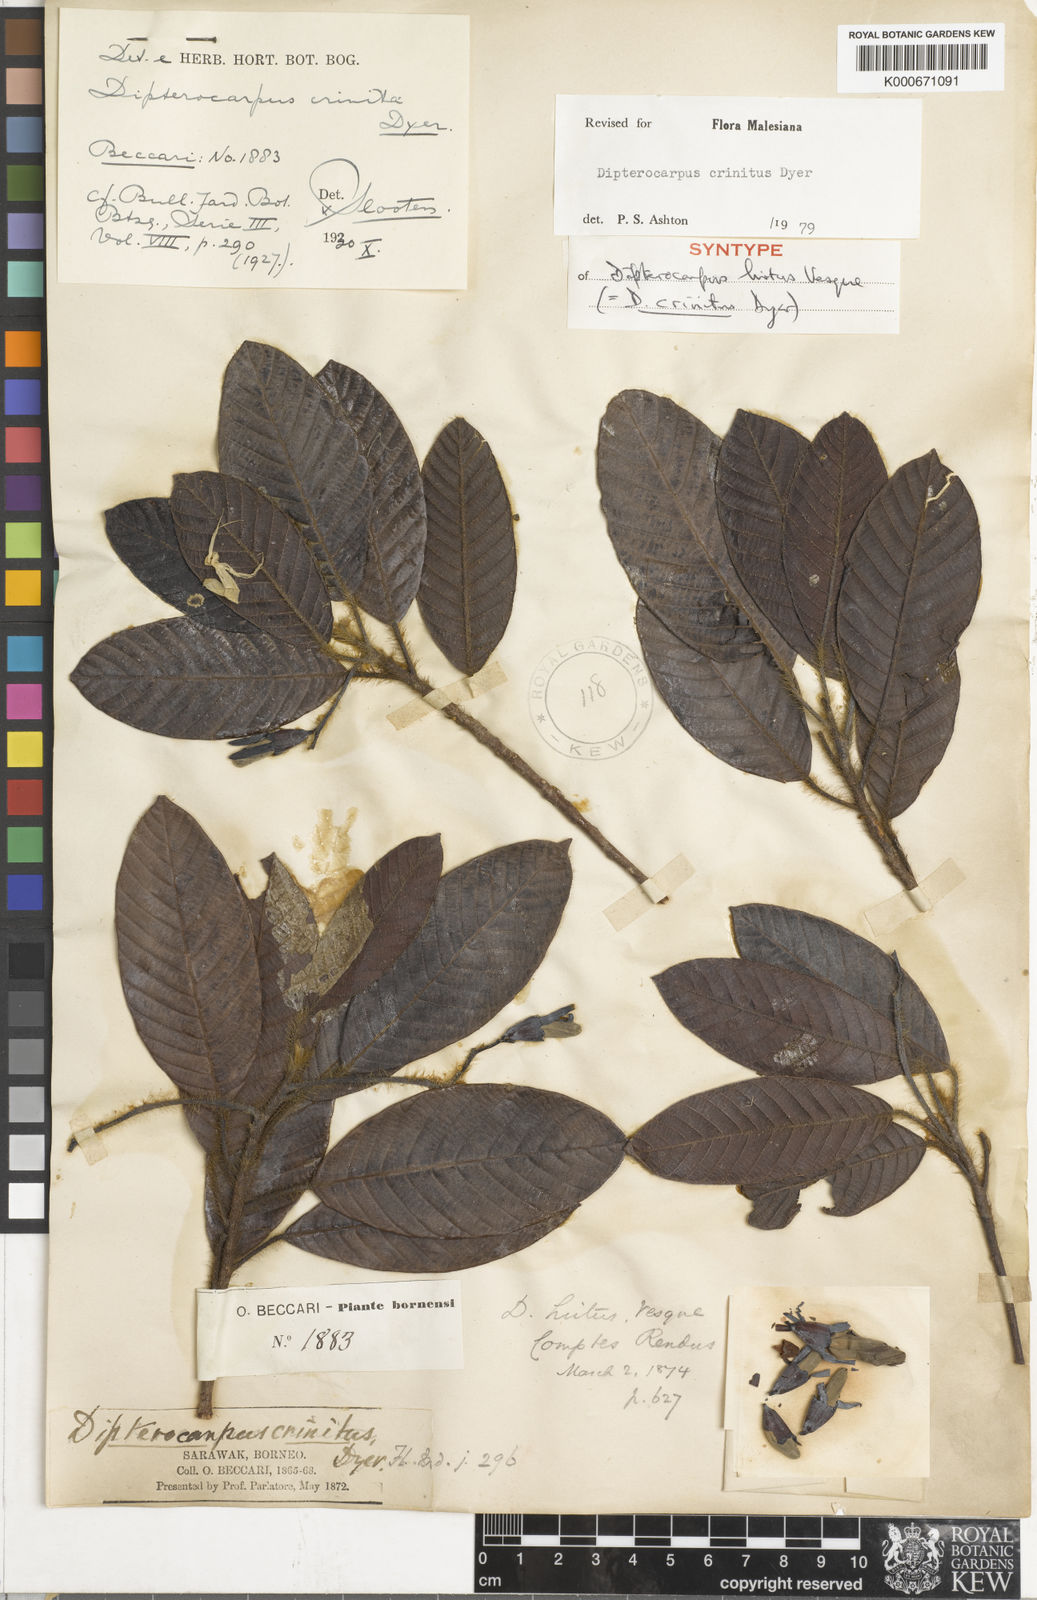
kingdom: Plantae
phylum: Tracheophyta
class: Magnoliopsida
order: Malvales
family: Dipterocarpaceae
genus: Dipterocarpus
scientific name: Dipterocarpus crinitus
